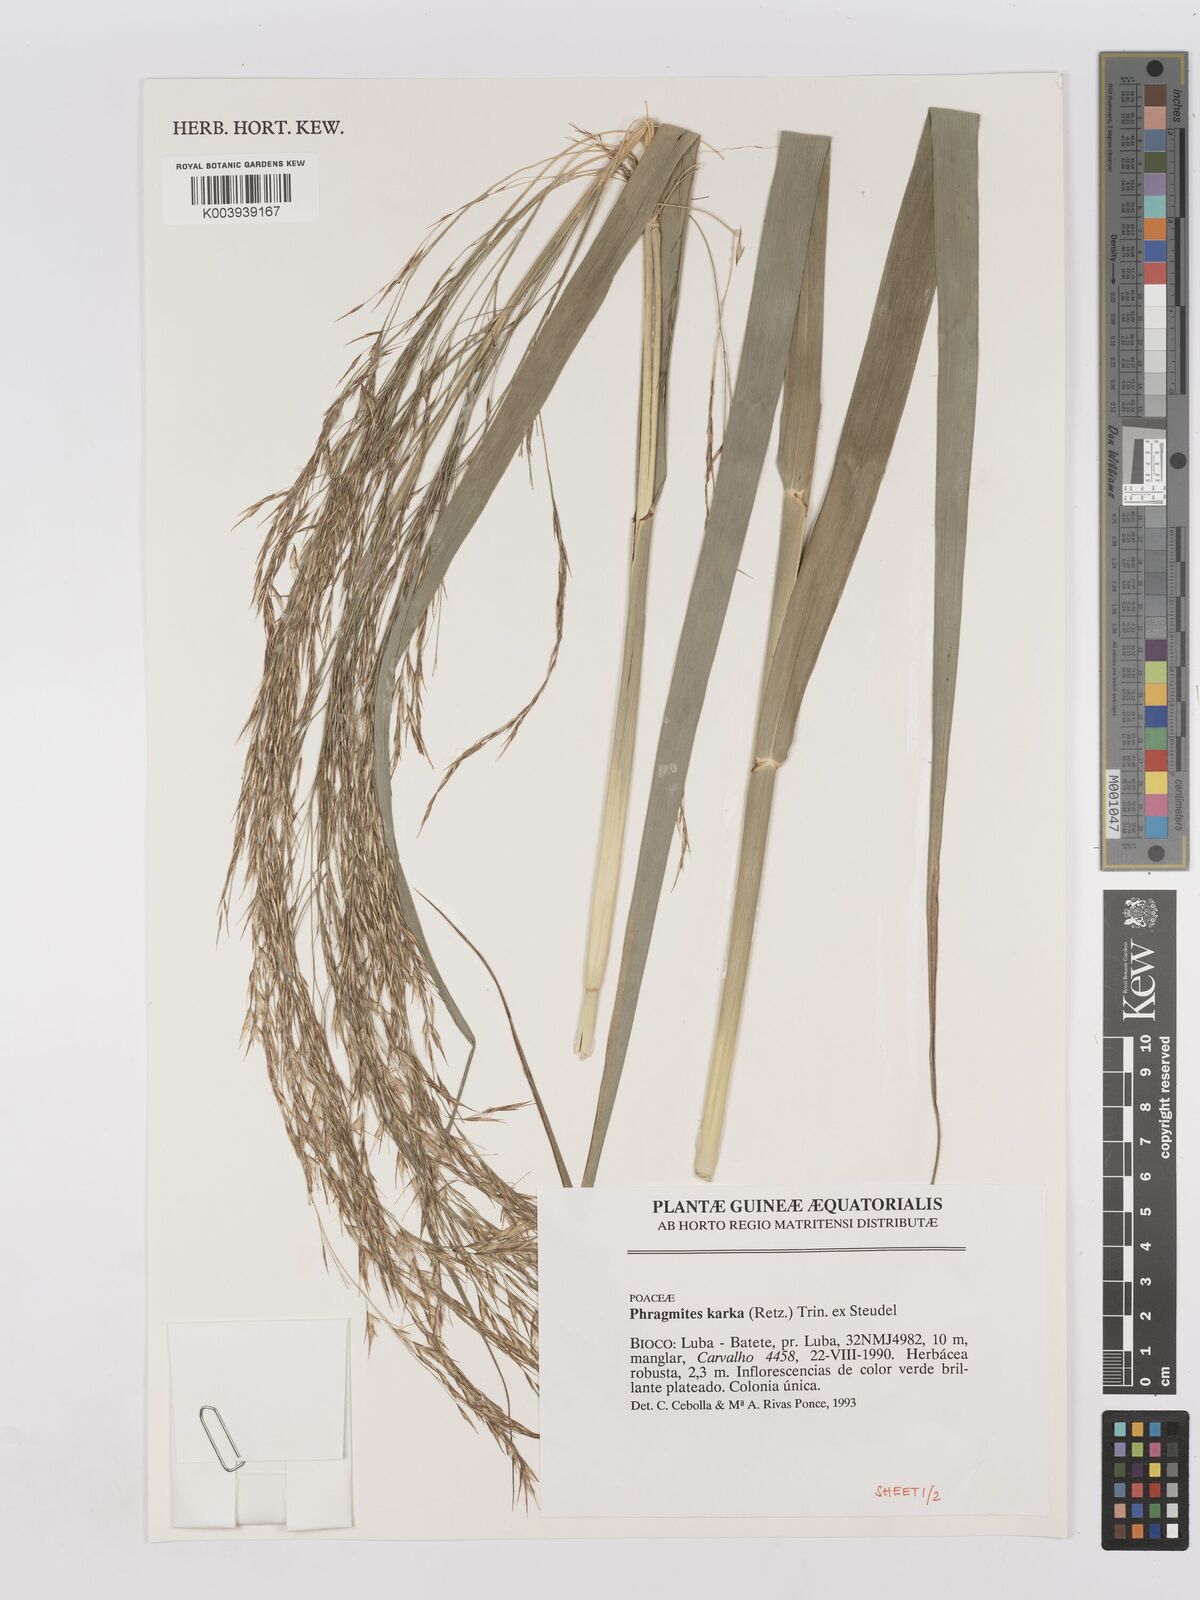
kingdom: Plantae
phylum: Tracheophyta
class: Liliopsida
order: Poales
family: Poaceae
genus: Phragmites
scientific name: Phragmites australis
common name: Common reed
